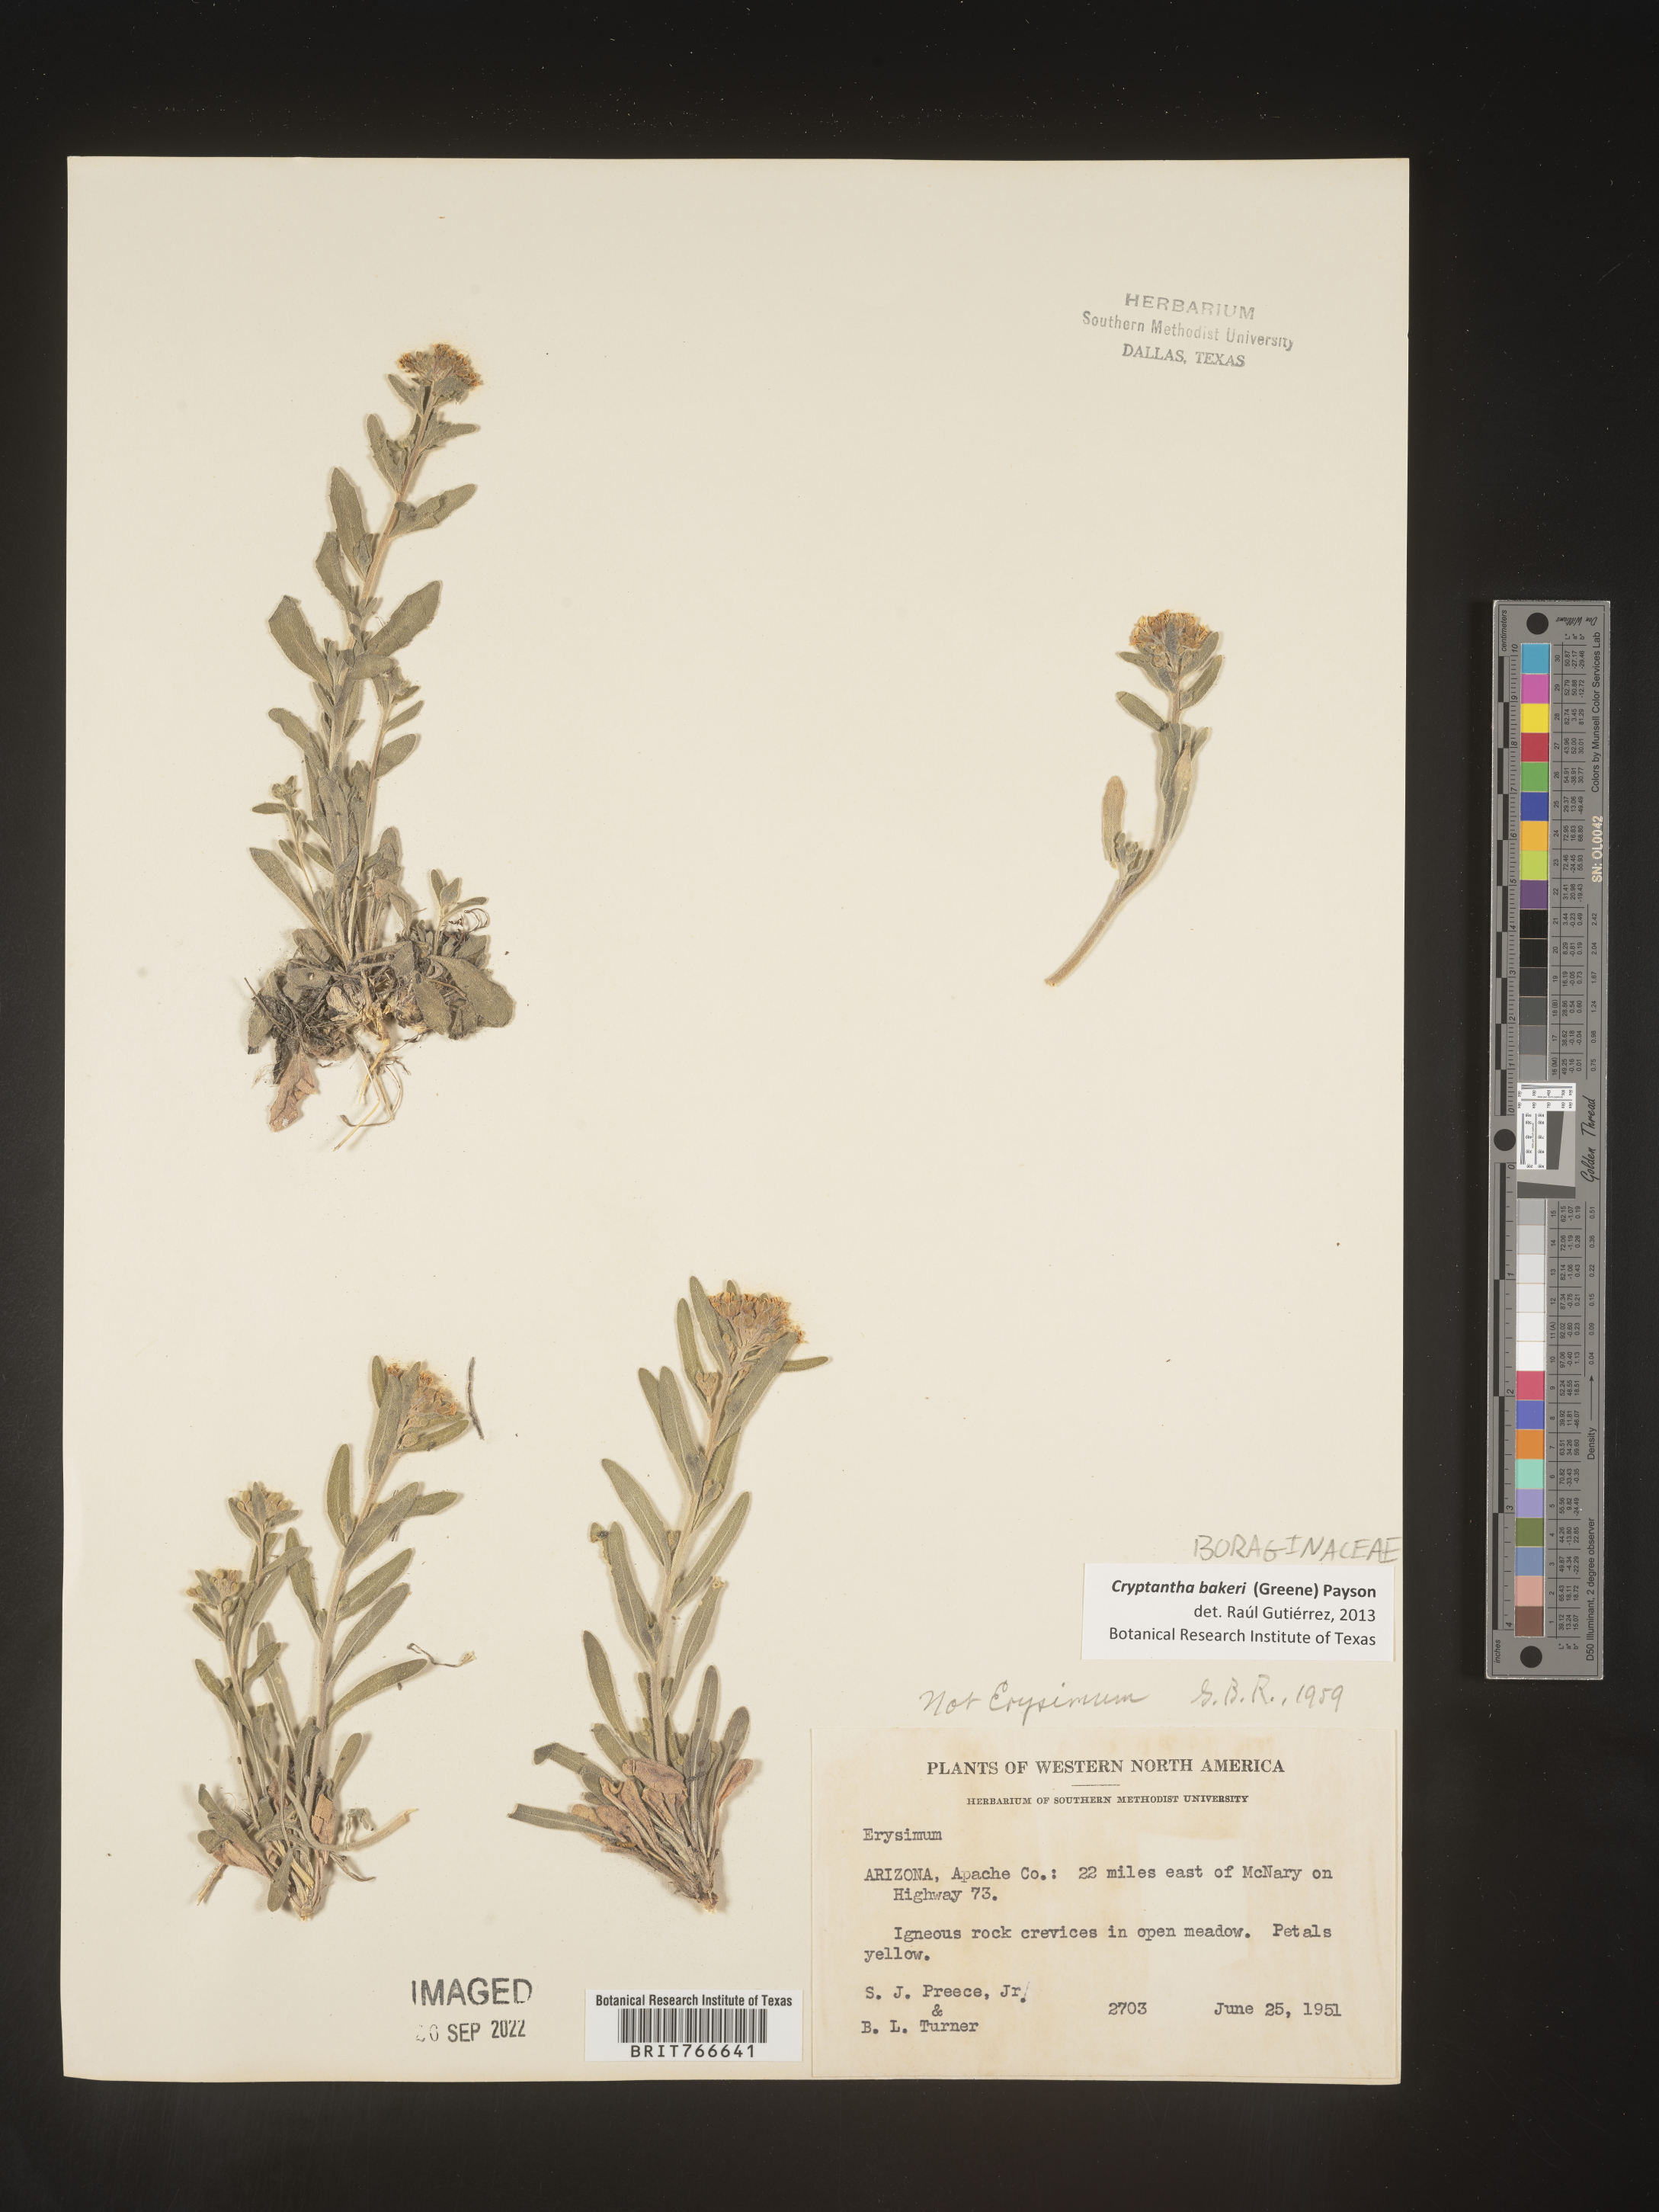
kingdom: Plantae
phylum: Tracheophyta
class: Magnoliopsida
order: Boraginales
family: Boraginaceae
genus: Cryptantha
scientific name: Cryptantha
